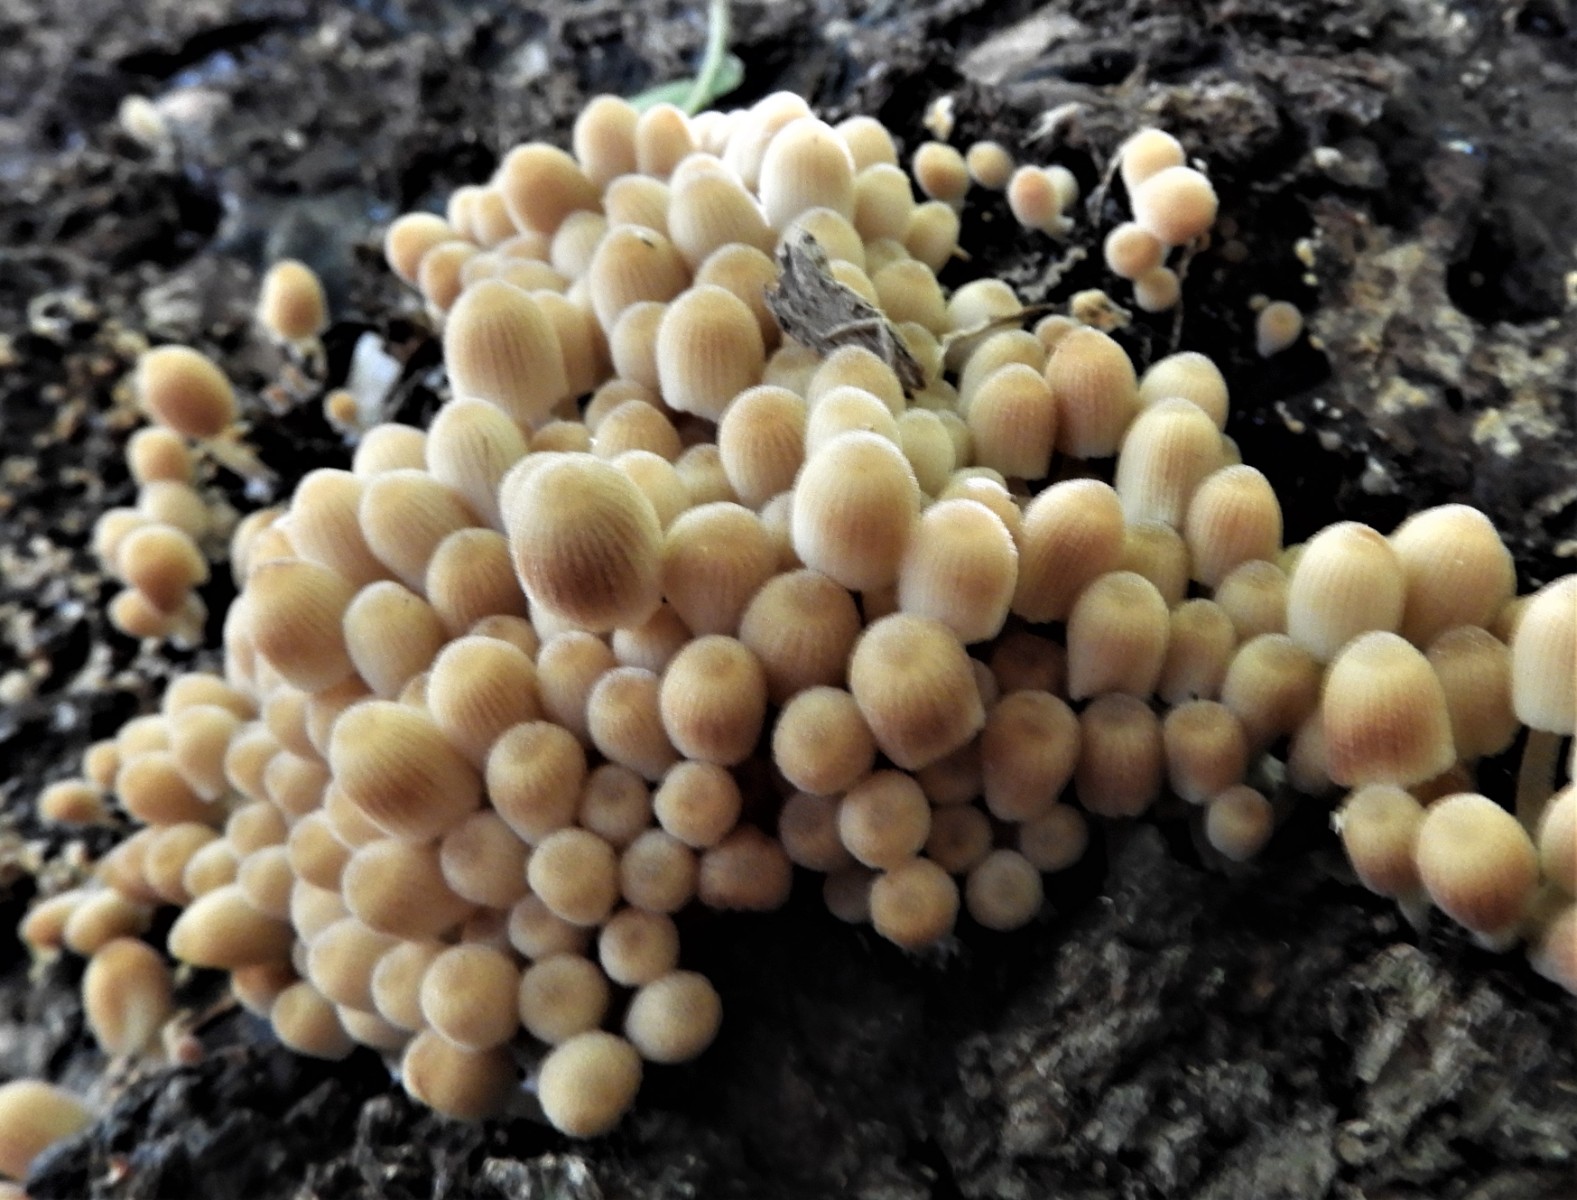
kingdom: Fungi
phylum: Basidiomycota
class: Agaricomycetes
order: Agaricales
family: Psathyrellaceae
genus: Coprinellus
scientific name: Coprinellus disseminatus
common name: bredsået blækhat
